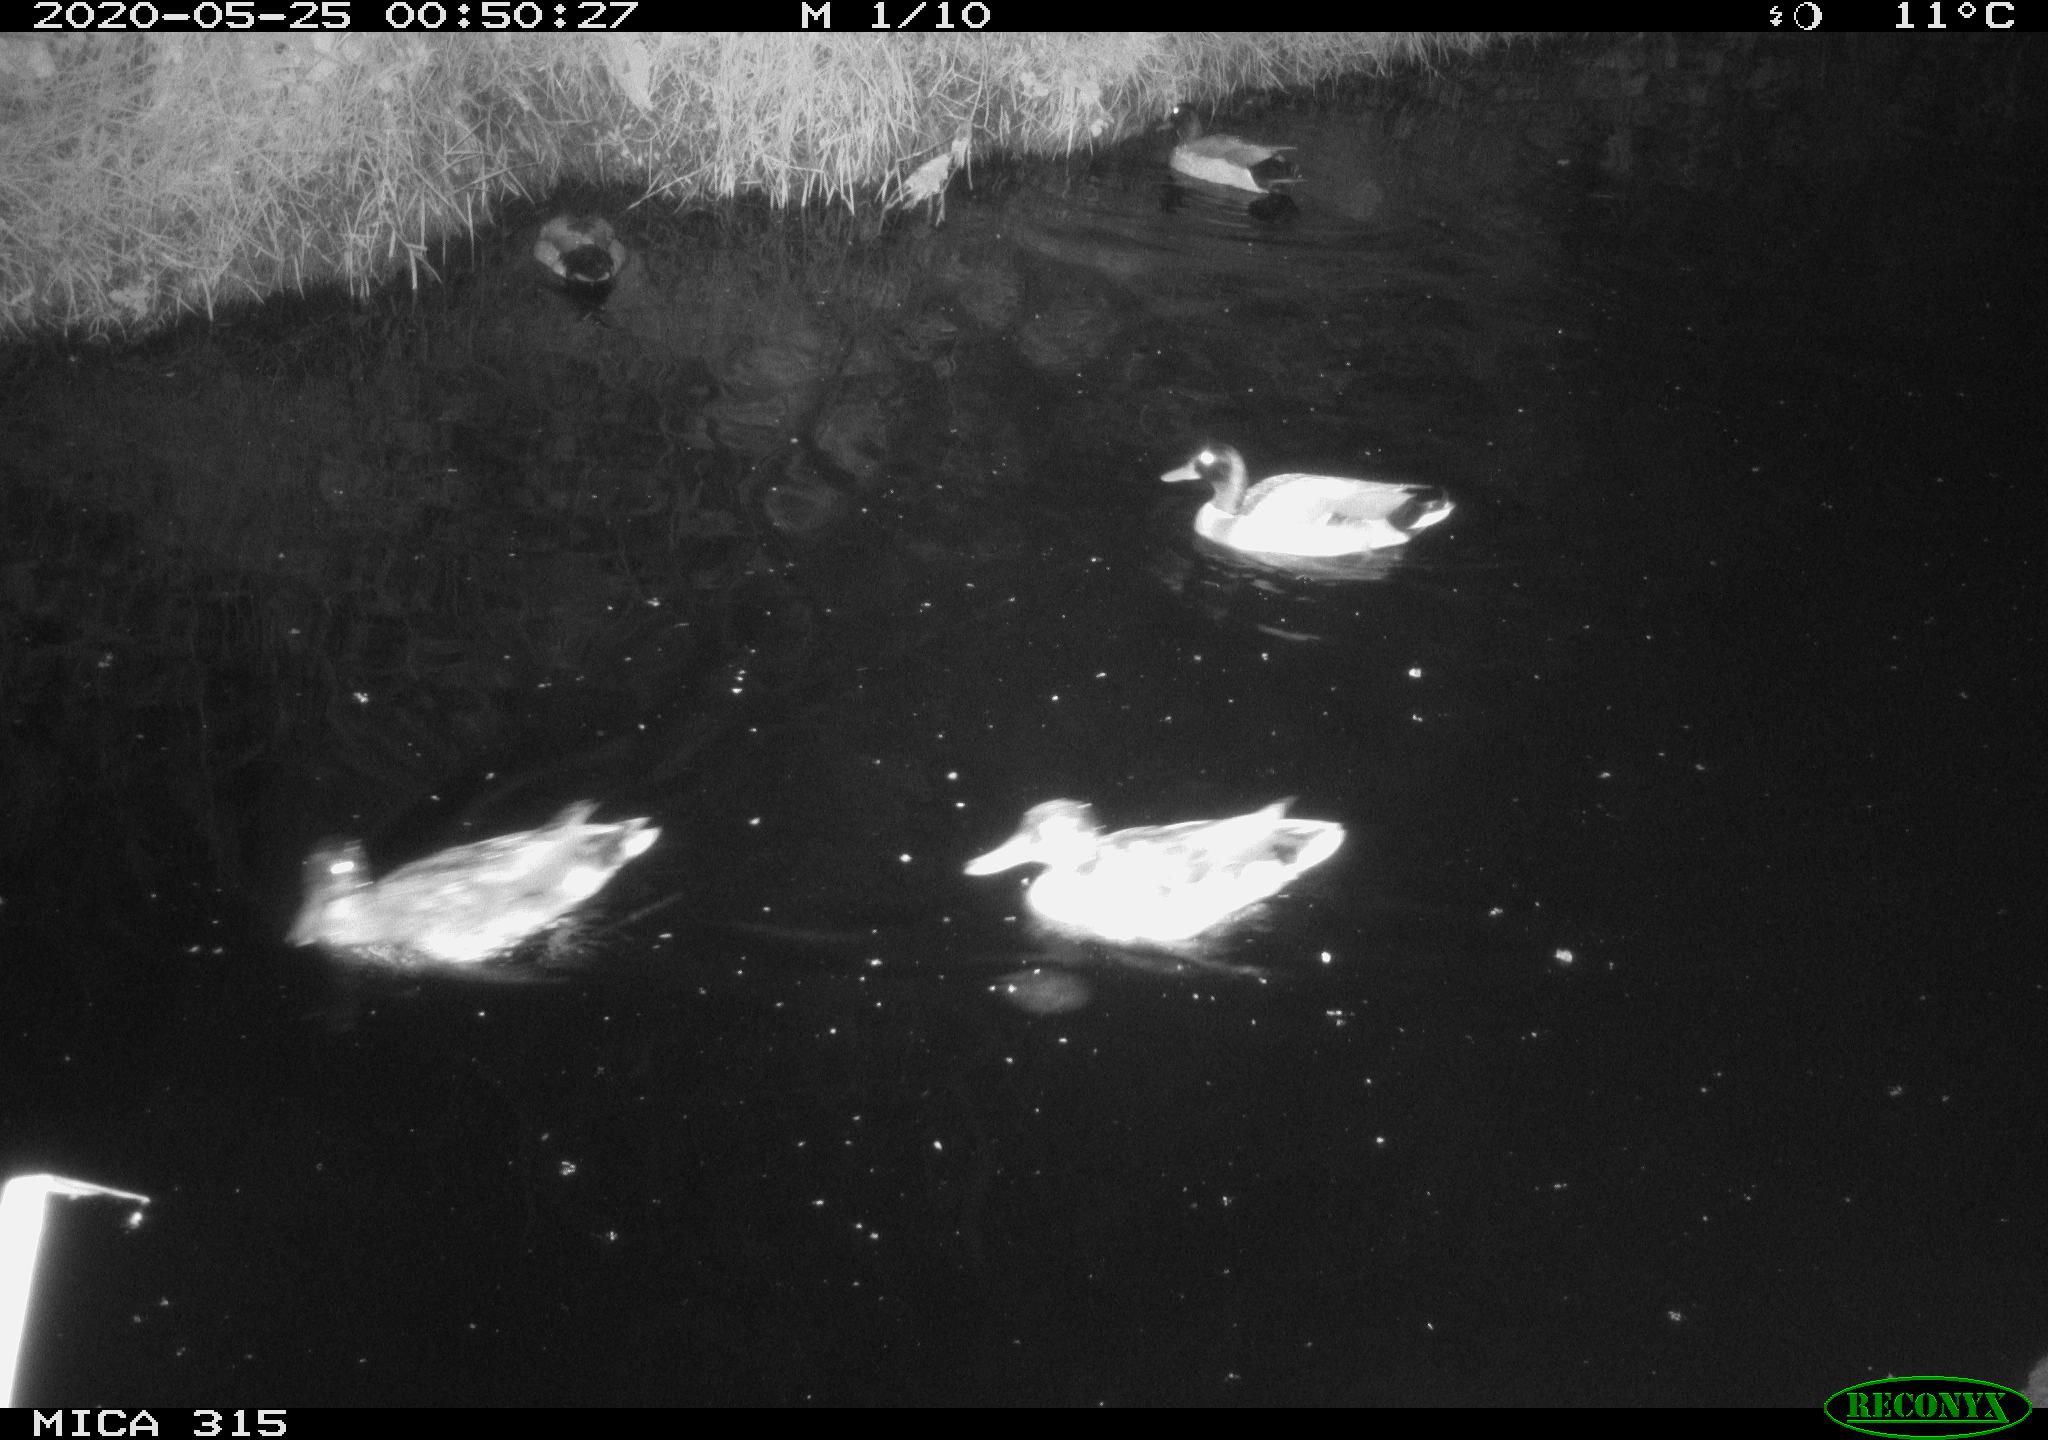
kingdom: Animalia
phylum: Chordata
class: Aves
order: Anseriformes
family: Anatidae
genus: Anas
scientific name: Anas platyrhynchos
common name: Mallard
